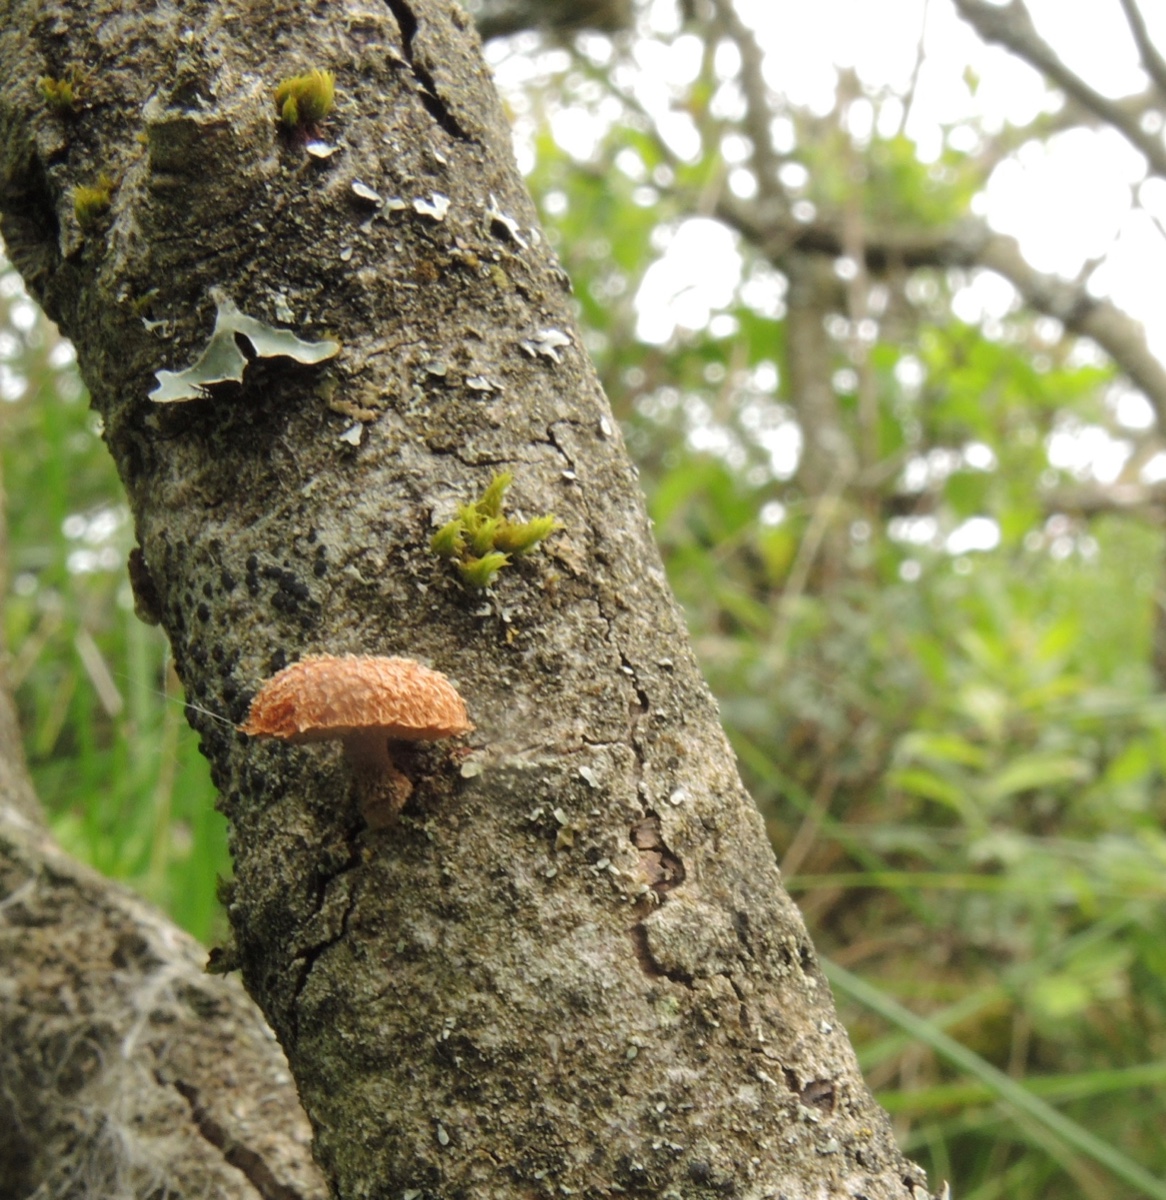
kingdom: Fungi
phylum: Basidiomycota
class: Agaricomycetes
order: Agaricales
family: Tubariaceae
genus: Phaeomarasmius
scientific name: Phaeomarasmius erinaceus
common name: spidsskælhat
